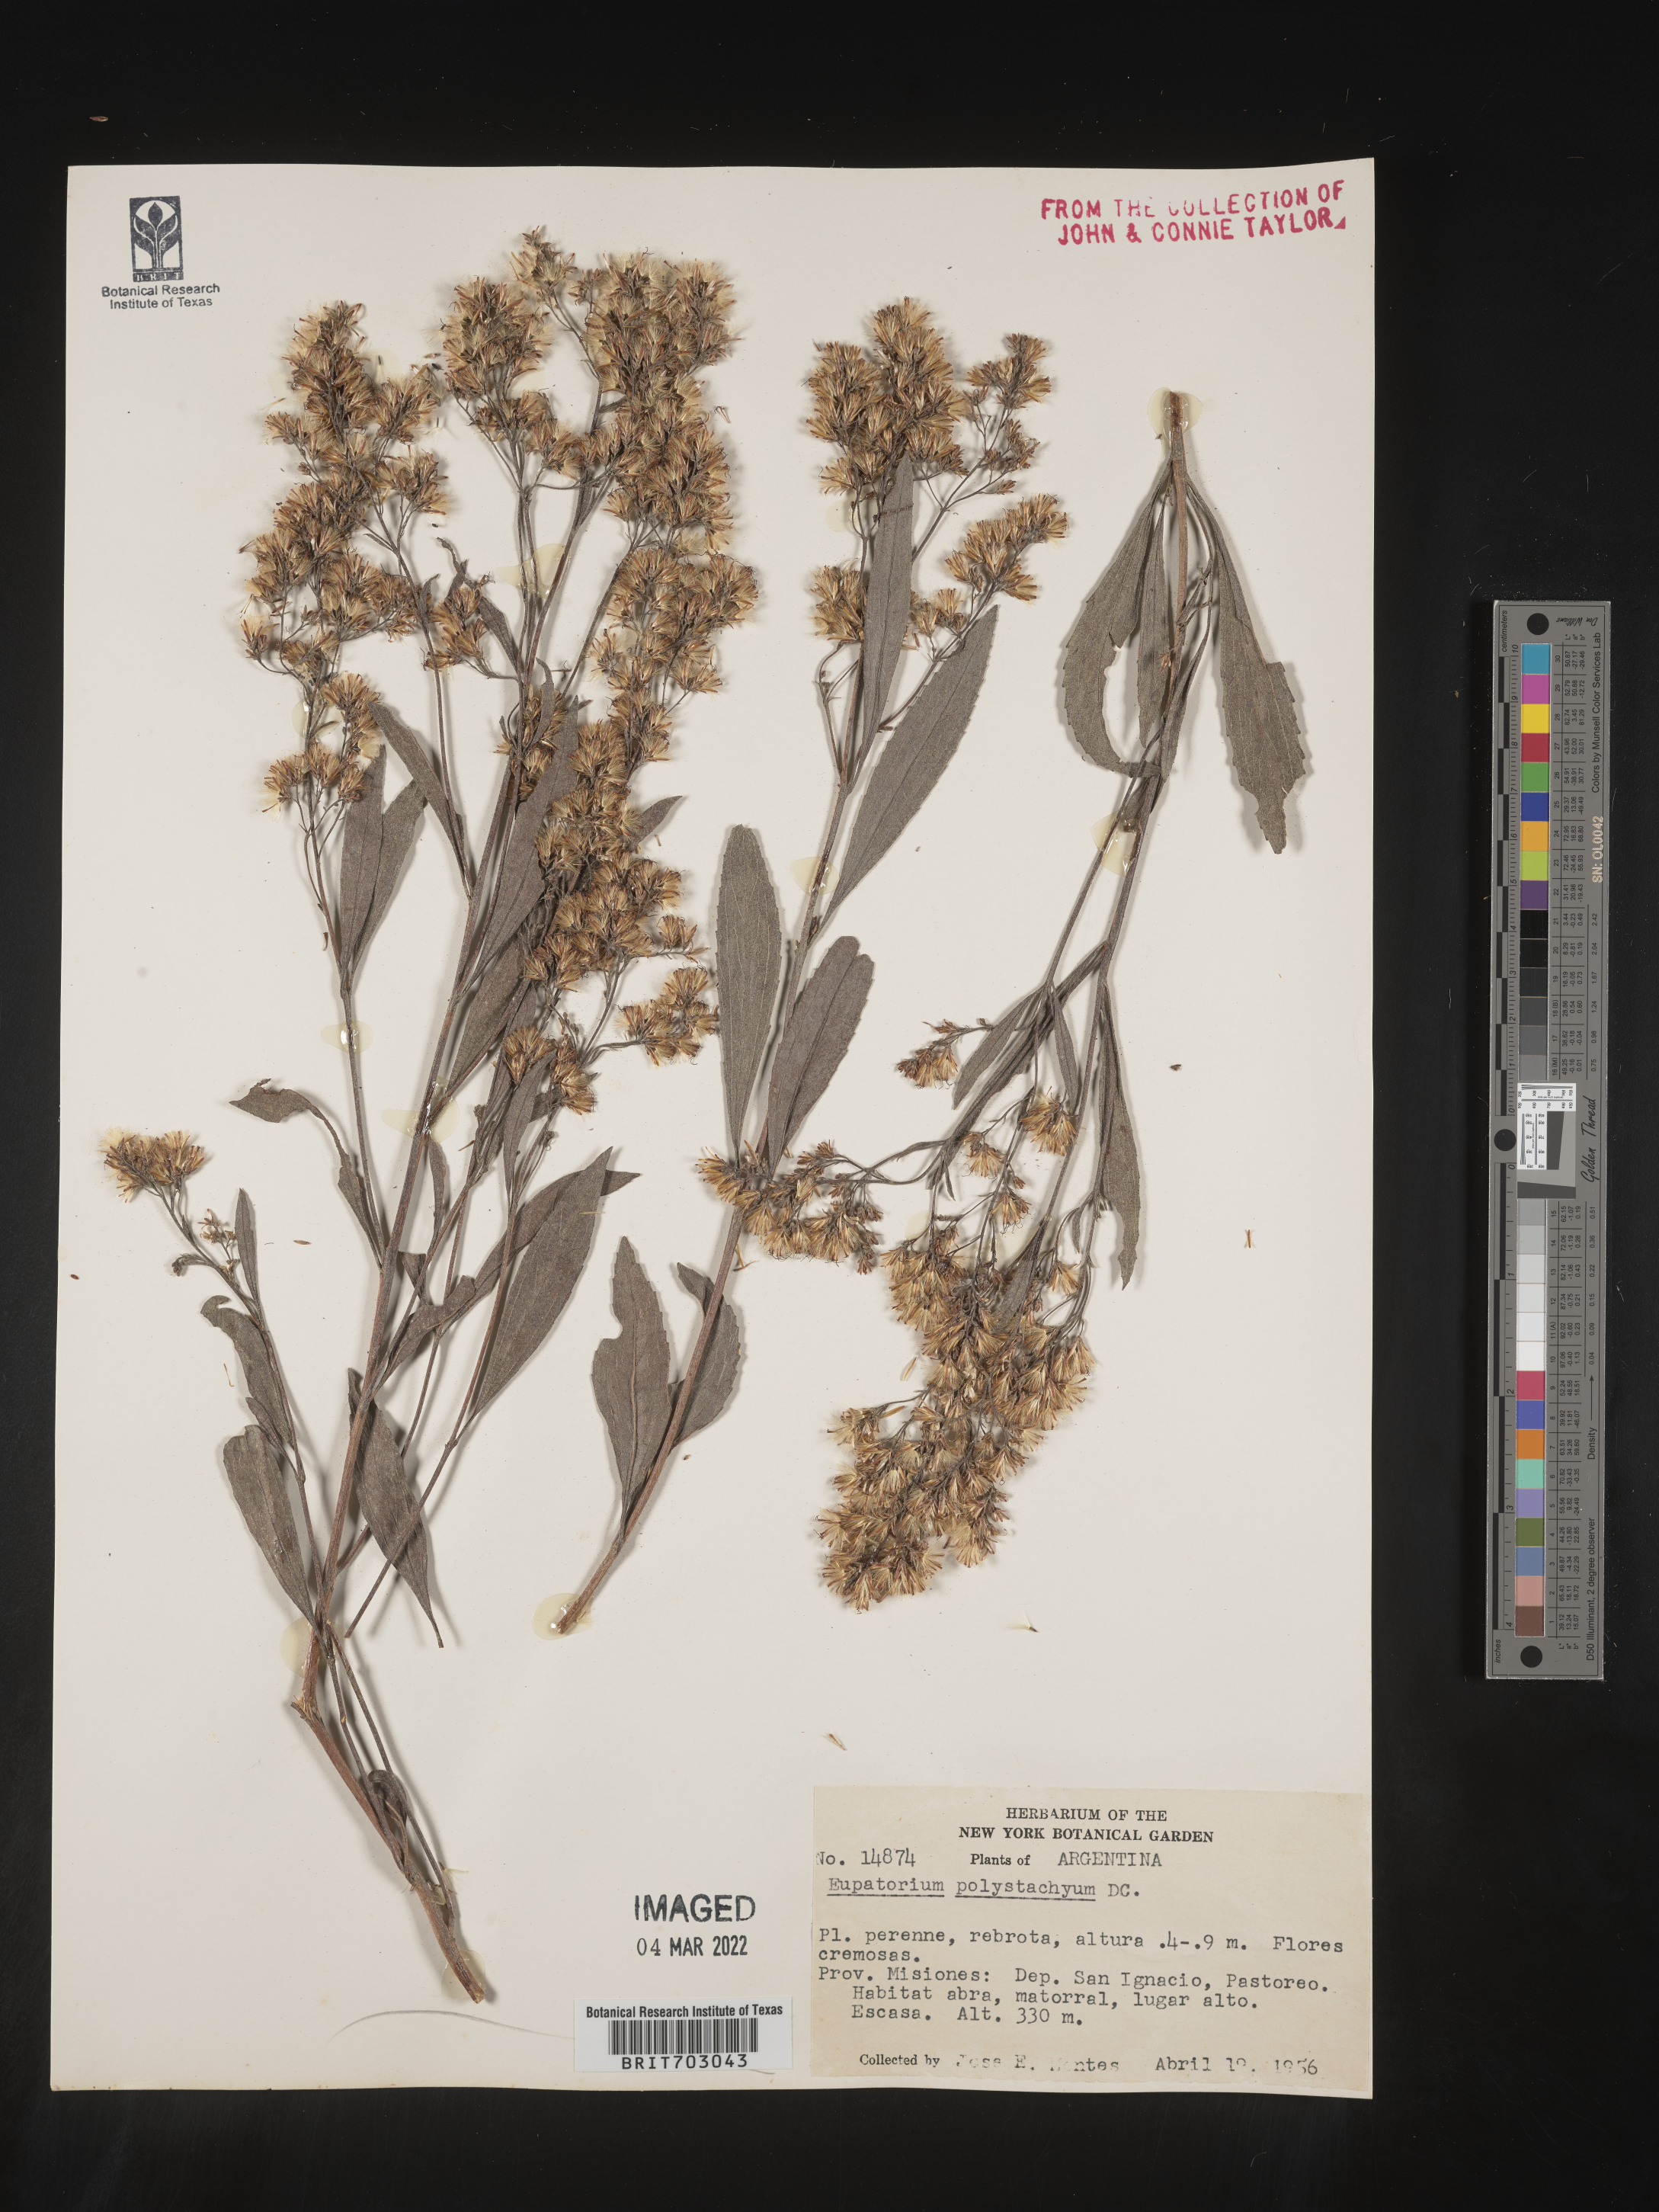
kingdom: Plantae
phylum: Tracheophyta
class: Magnoliopsida
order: Asterales
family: Asteraceae
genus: Eupatorium
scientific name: Eupatorium
